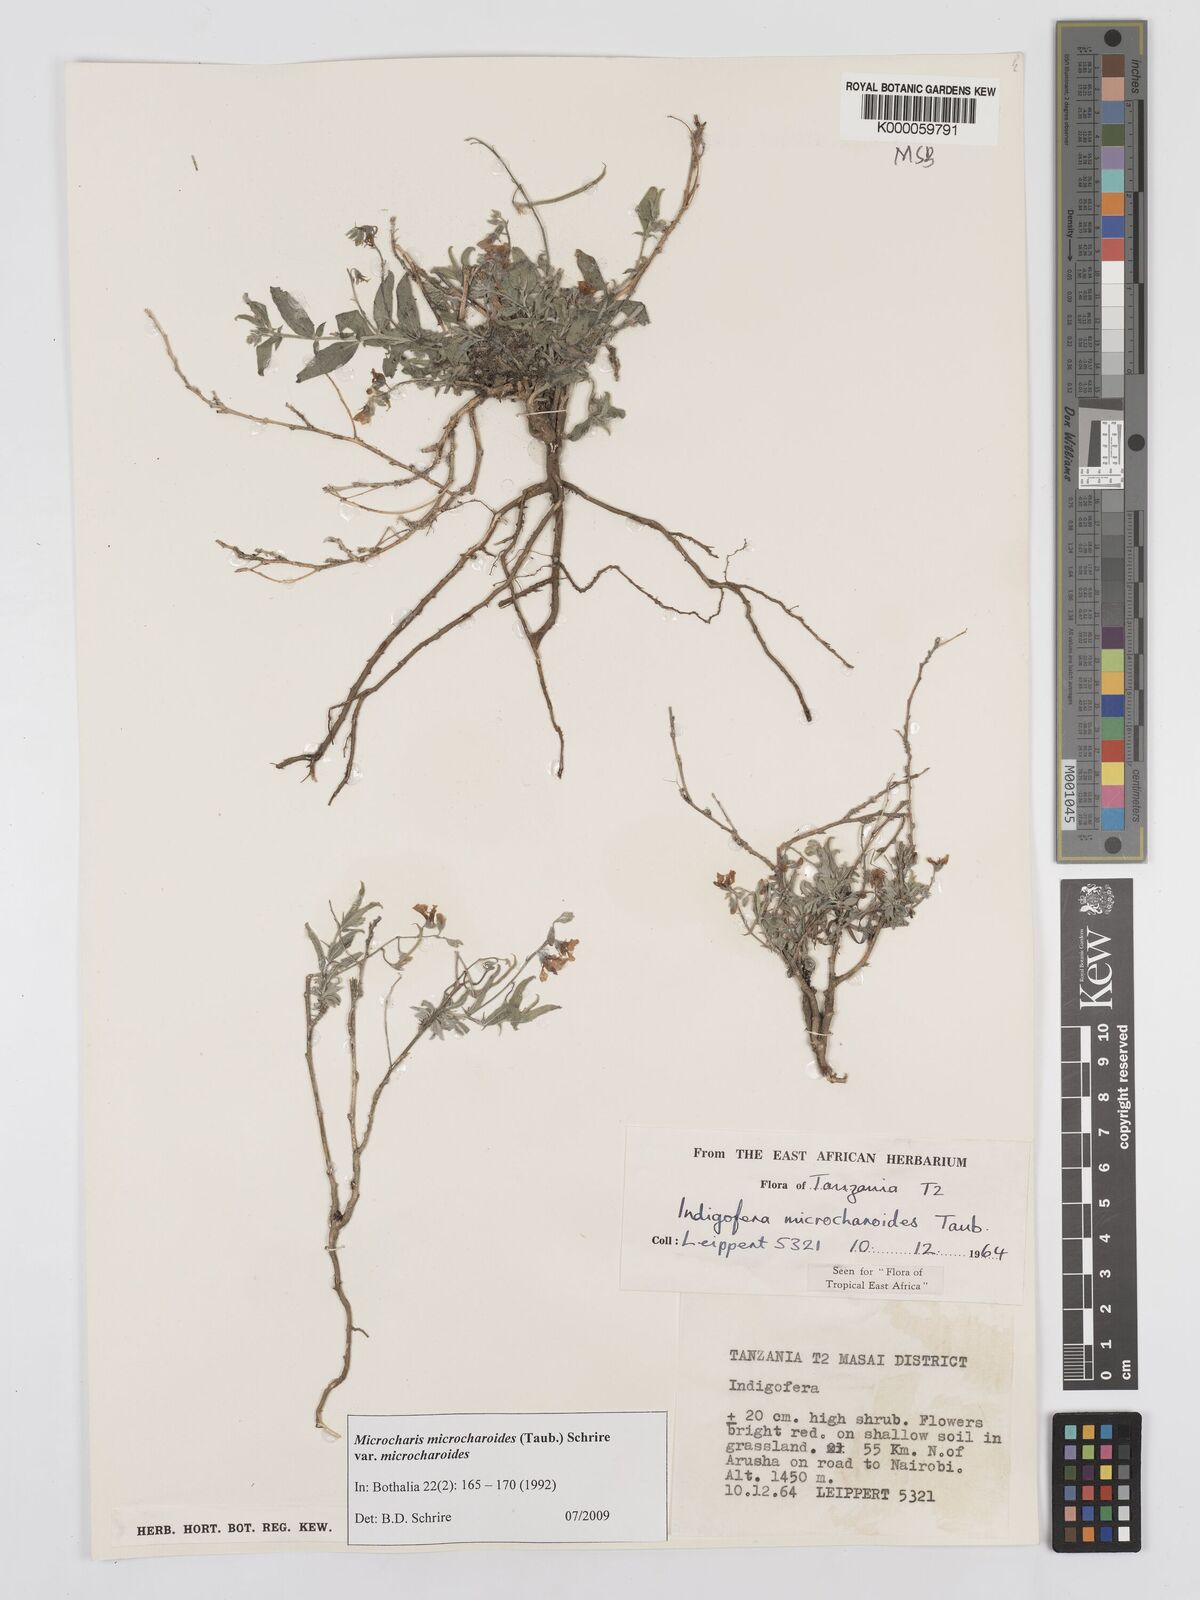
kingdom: Plantae
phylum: Tracheophyta
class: Magnoliopsida
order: Fabales
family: Fabaceae
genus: Microcharis
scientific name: Microcharis microcharoides
